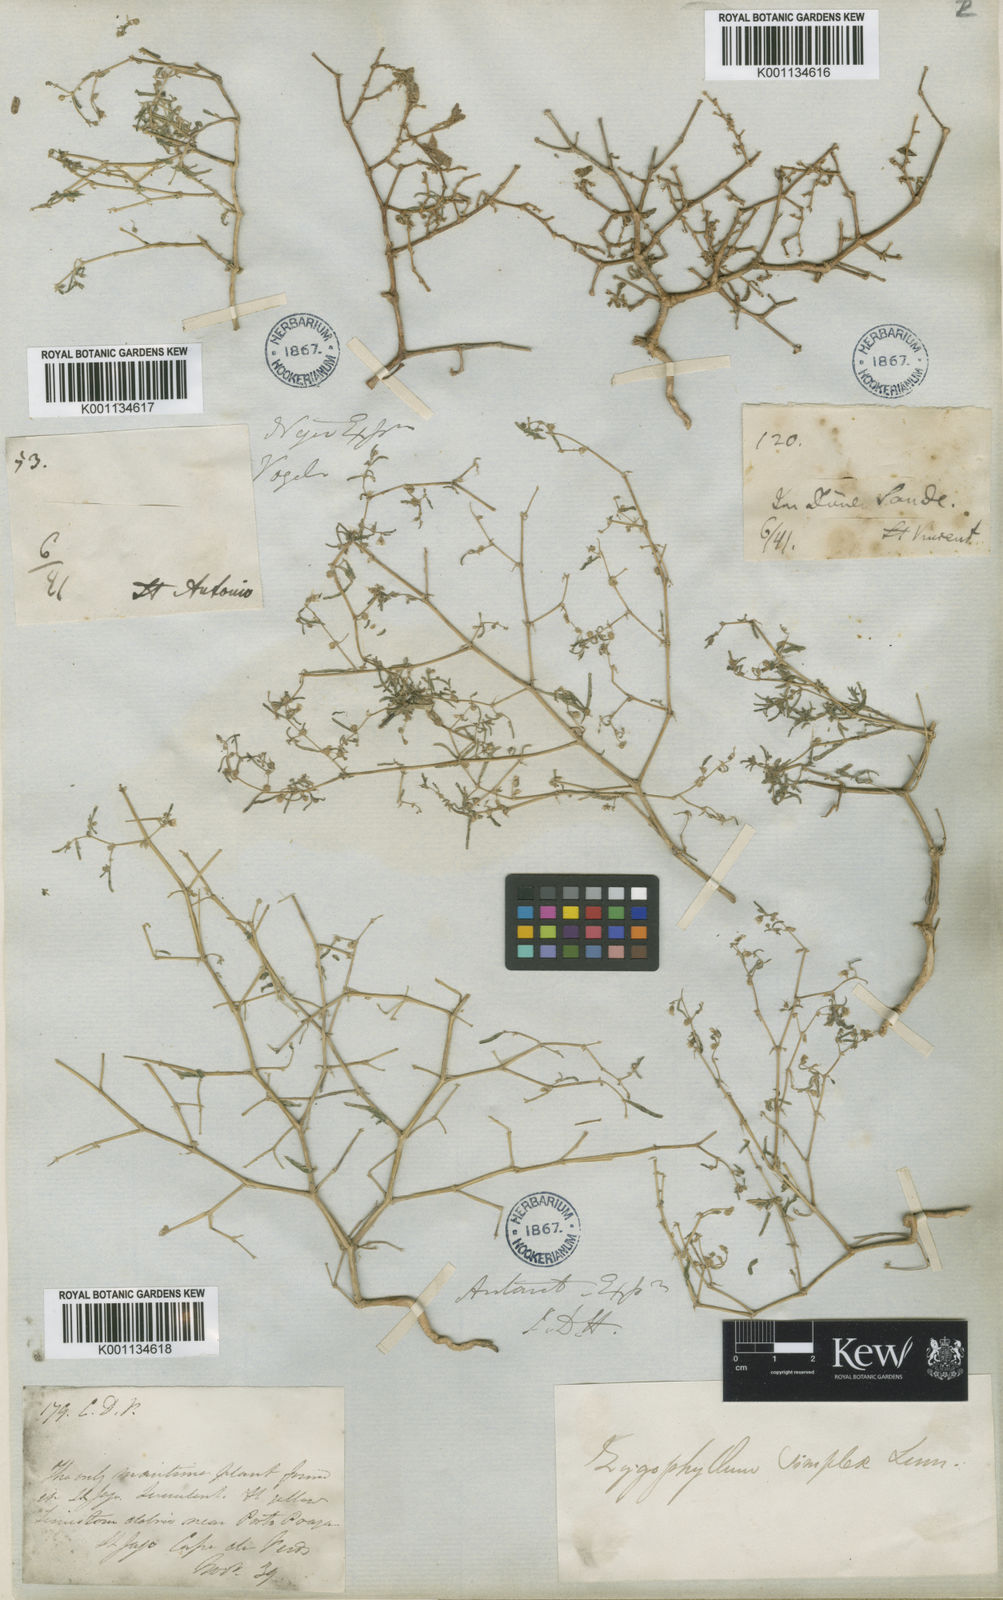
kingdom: Plantae
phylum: Tracheophyta
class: Magnoliopsida
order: Zygophyllales
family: Zygophyllaceae
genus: Tetraena
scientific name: Tetraena simplex
